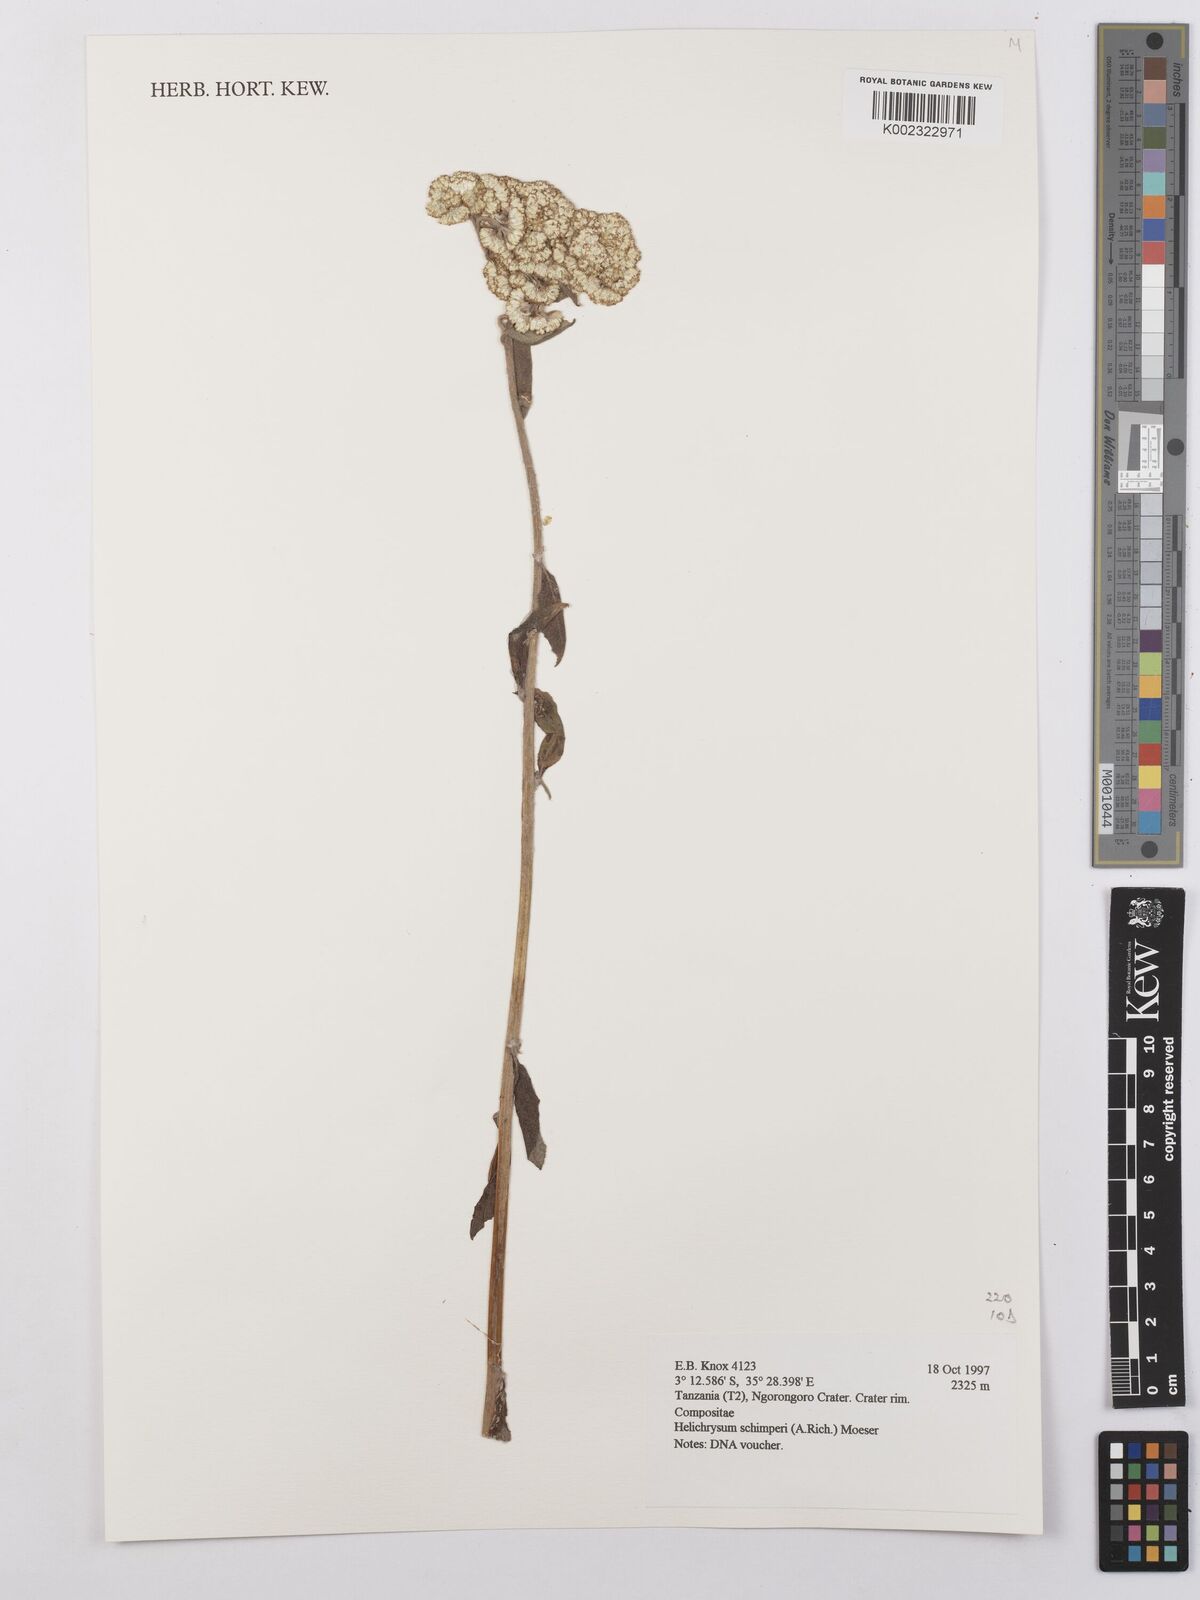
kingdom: Plantae
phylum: Tracheophyta
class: Magnoliopsida
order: Asterales
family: Asteraceae
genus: Helichrysum
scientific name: Helichrysum schimperi
